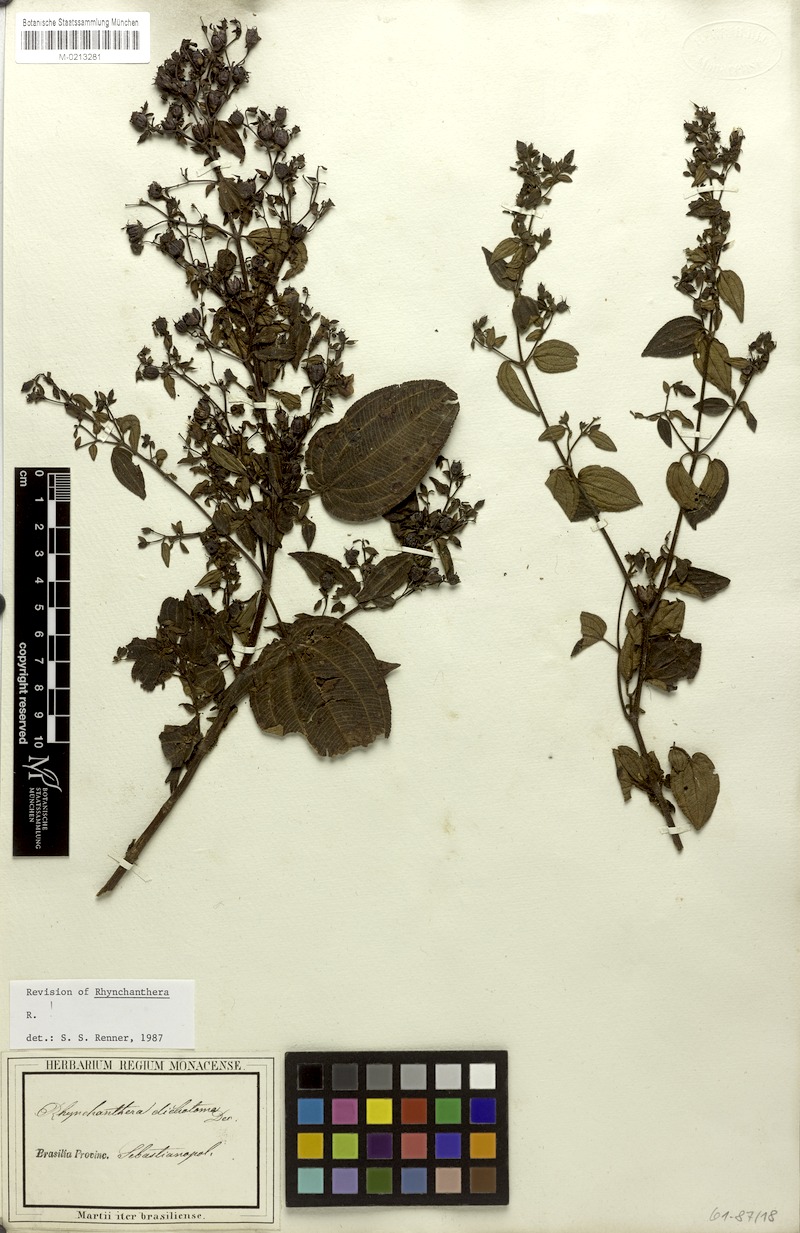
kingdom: Plantae
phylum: Tracheophyta
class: Magnoliopsida
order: Myrtales
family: Melastomataceae
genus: Rhynchanthera
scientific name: Rhynchanthera dichotoma
